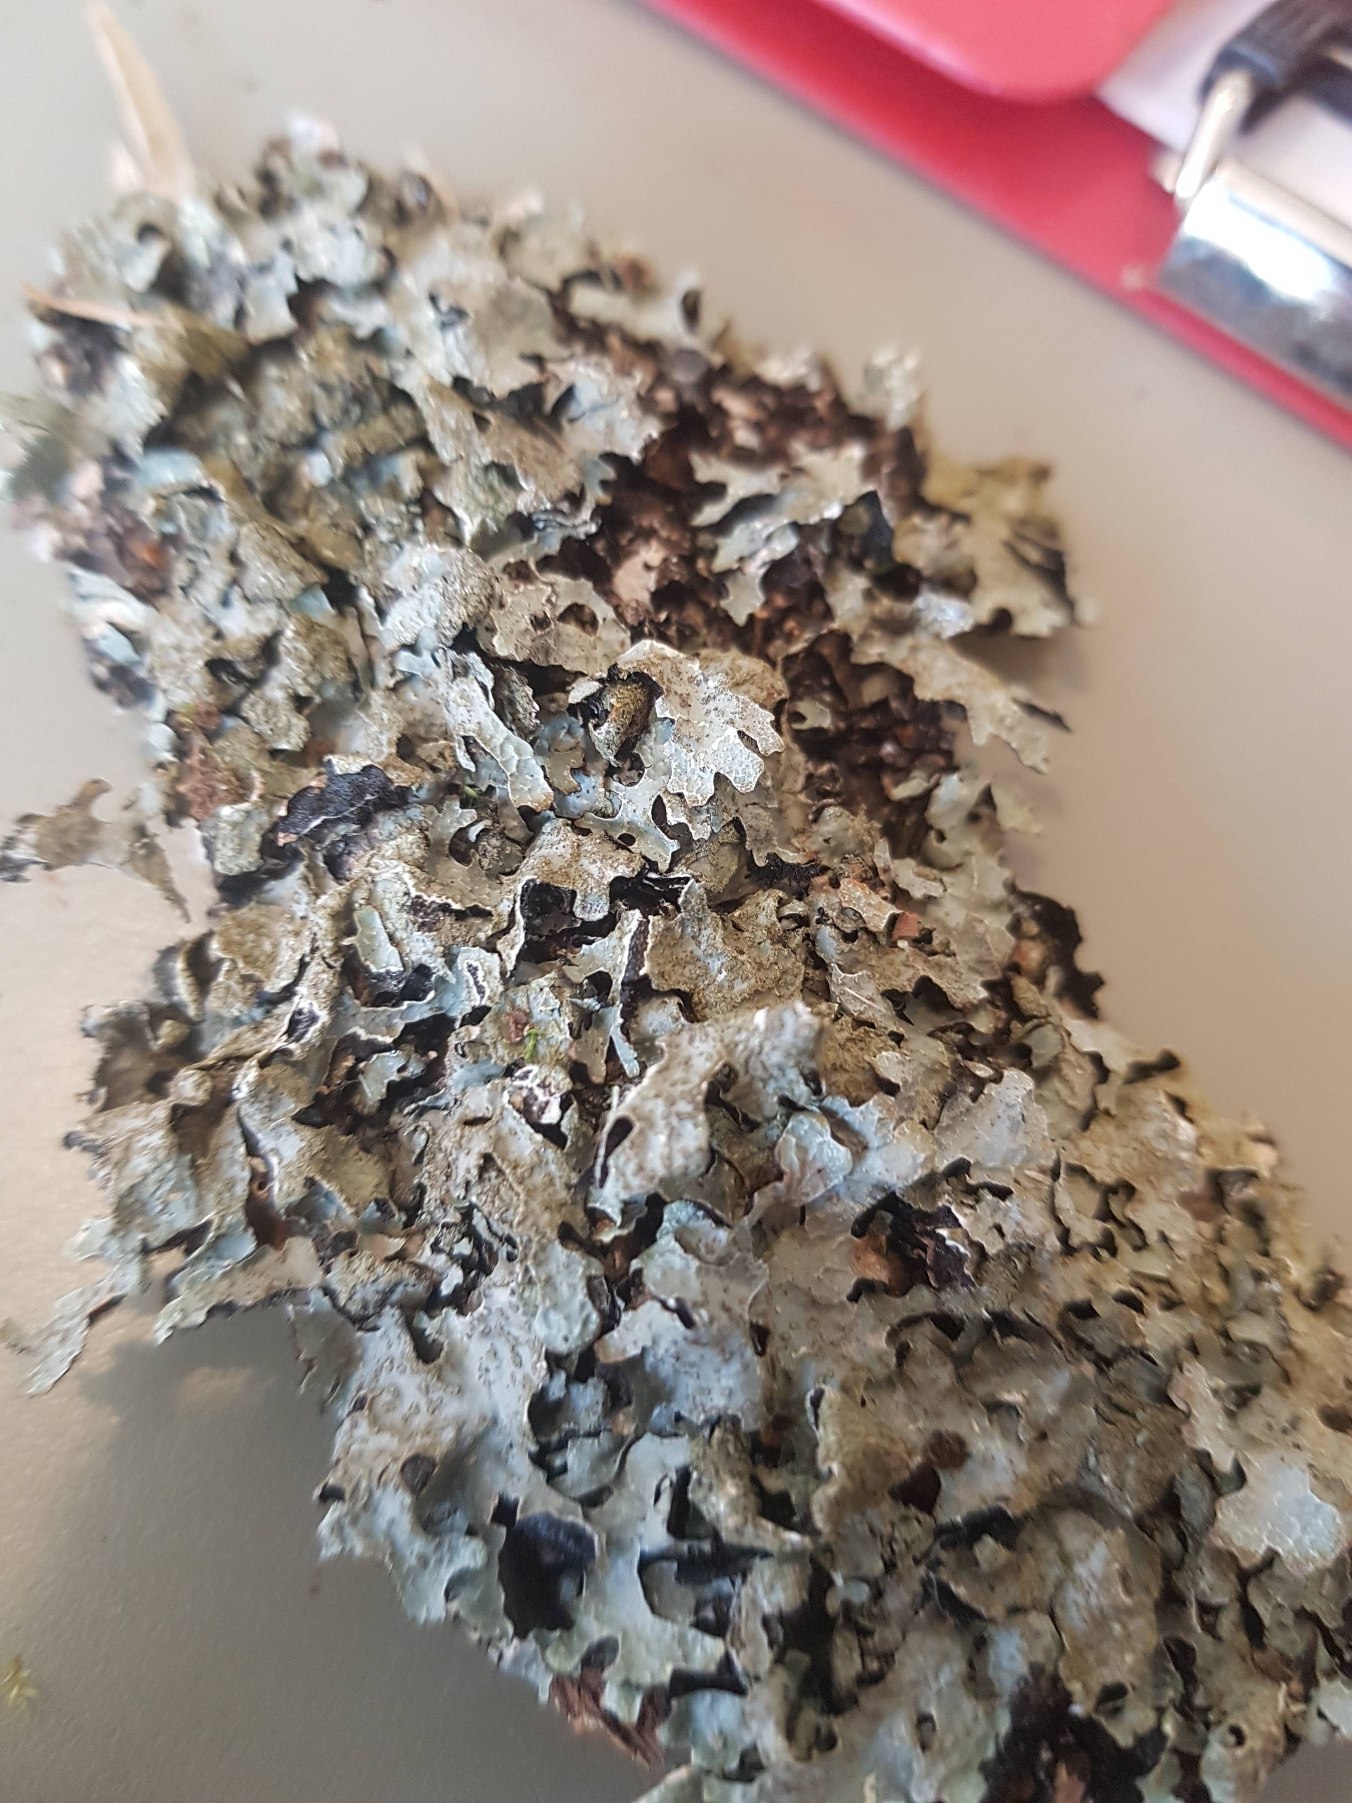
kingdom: Fungi
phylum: Ascomycota
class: Lecanoromycetes
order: Lecanorales
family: Parmeliaceae
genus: Parmelia
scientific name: Parmelia sulcata
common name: Rynket skållav
